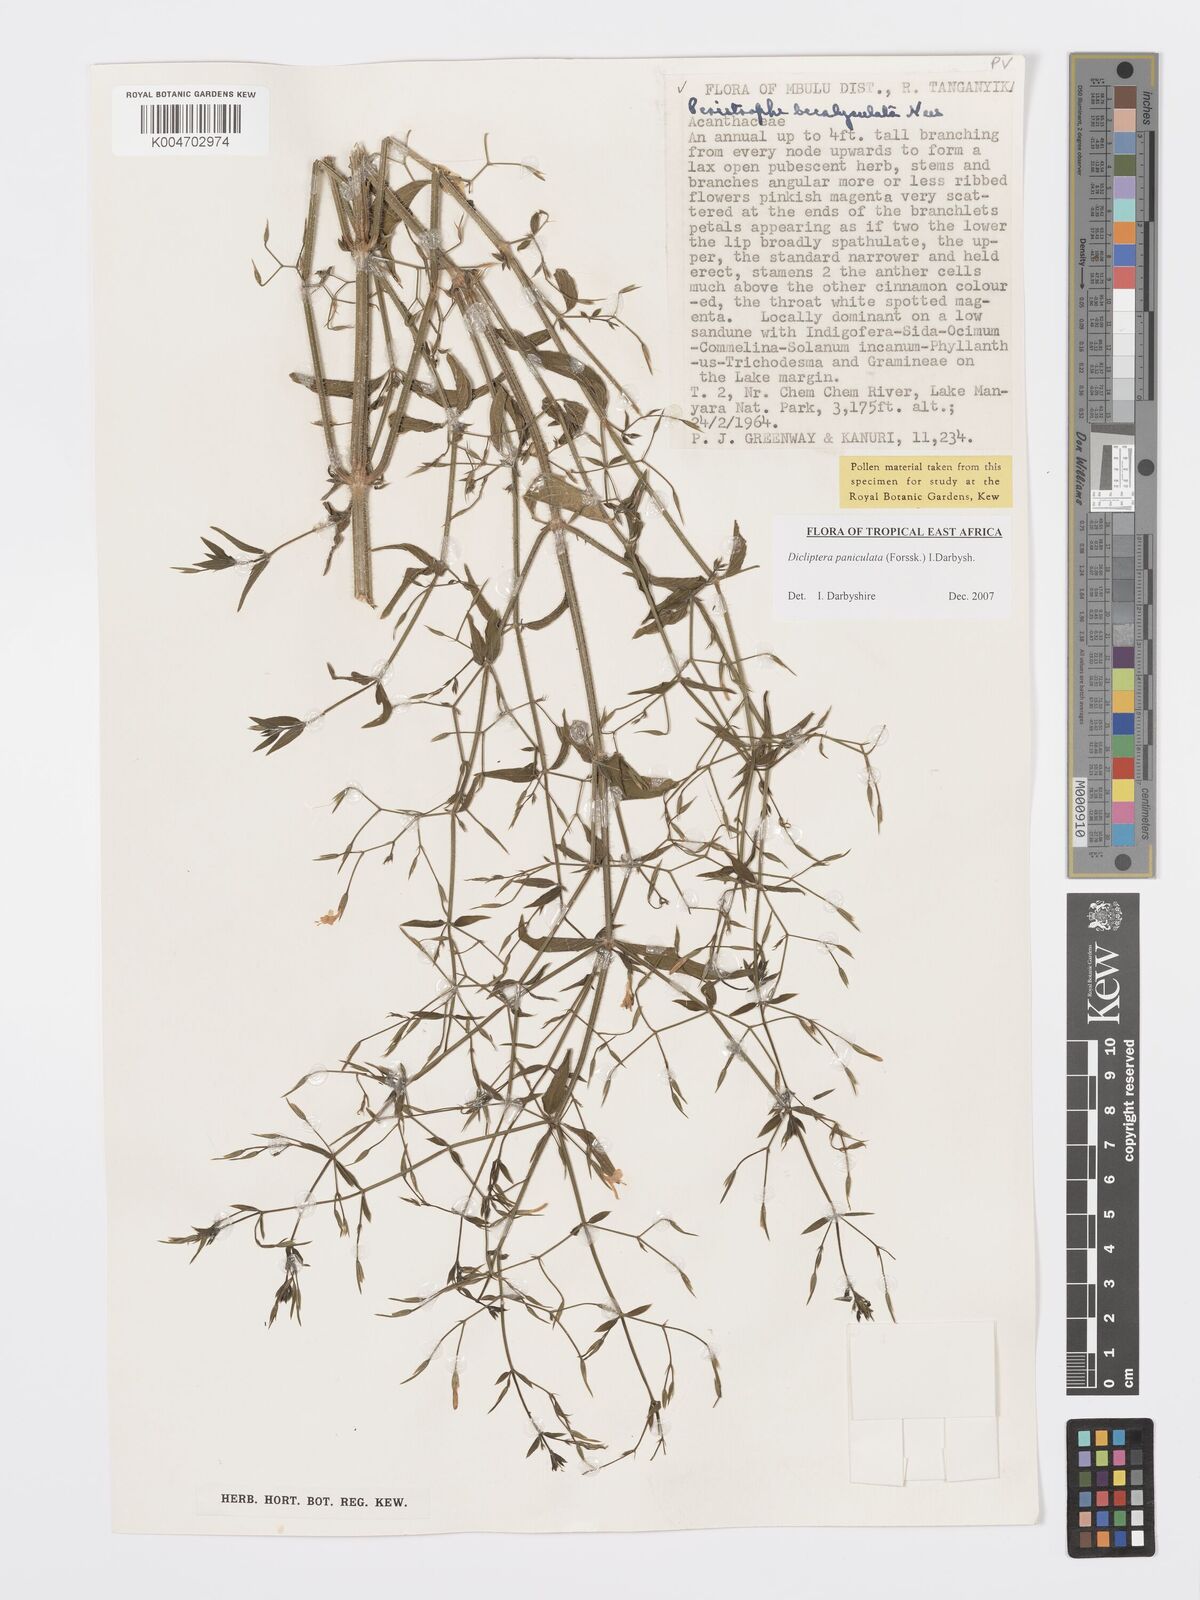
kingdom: Plantae
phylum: Tracheophyta
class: Magnoliopsida
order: Lamiales
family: Acanthaceae
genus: Dicliptera
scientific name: Dicliptera paniculata
